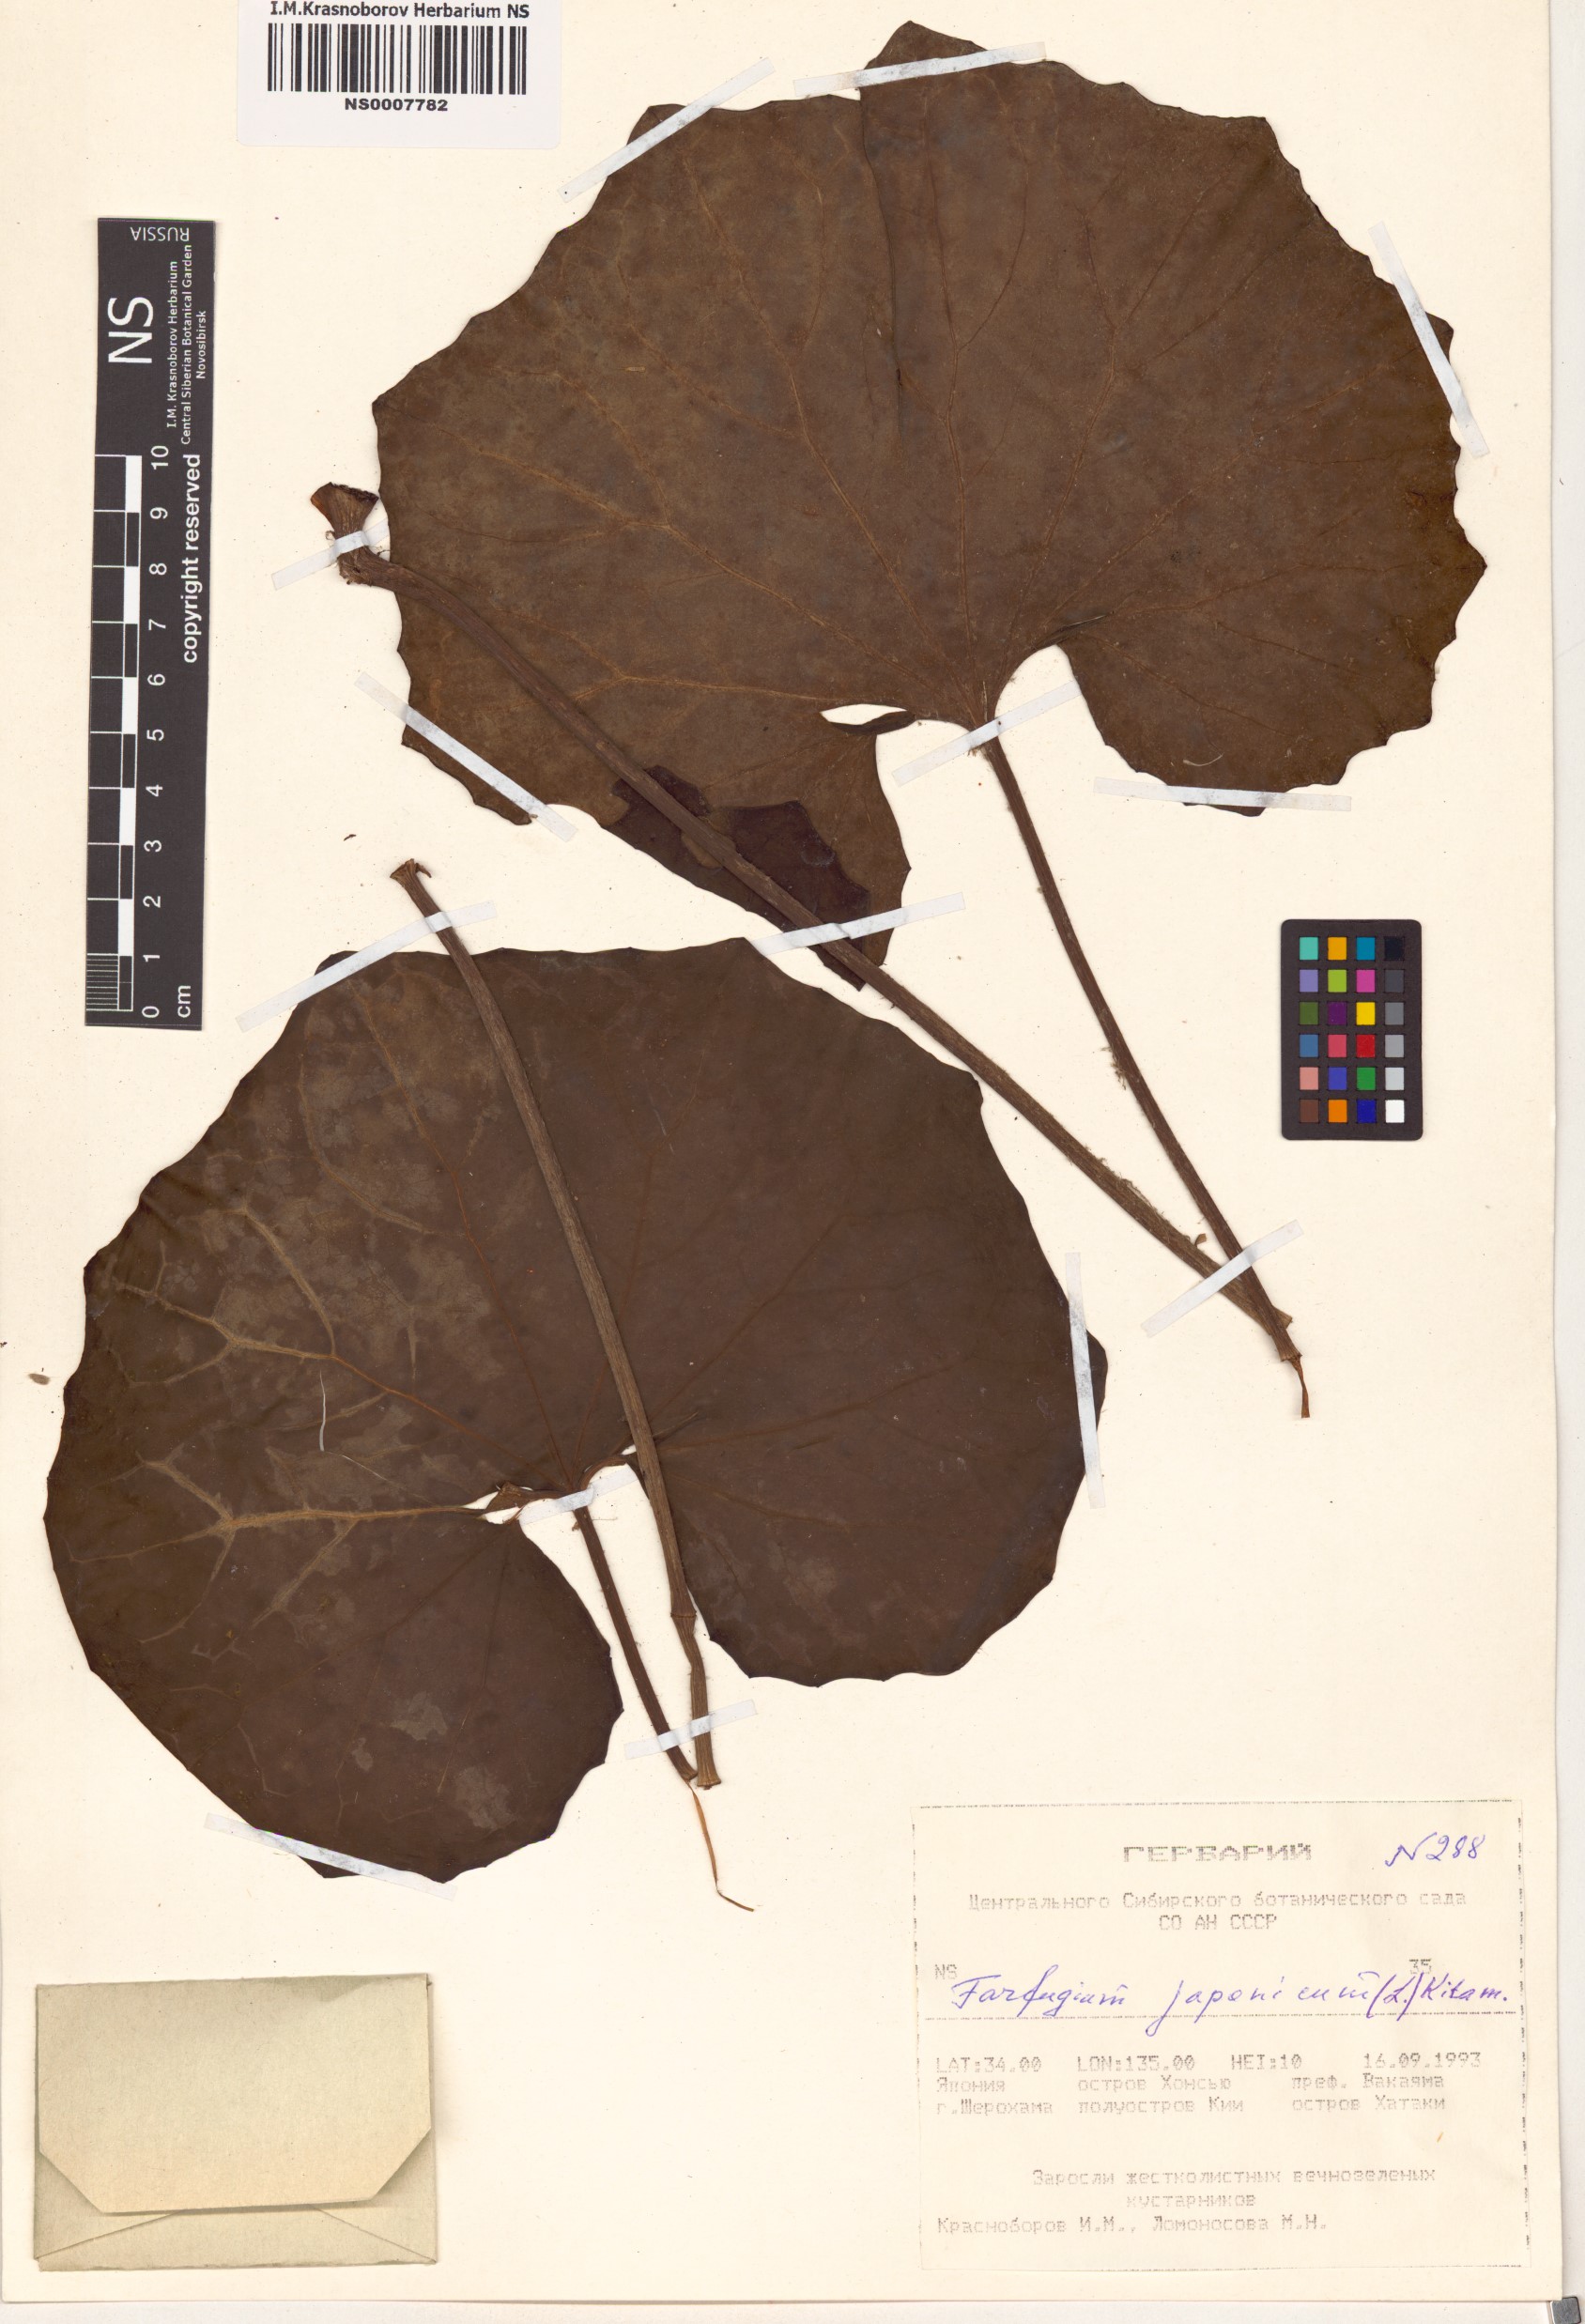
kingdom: Plantae
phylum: Tracheophyta
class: Magnoliopsida
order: Asterales
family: Asteraceae
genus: Farfugium
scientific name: Farfugium japonicum
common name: Leopardplant
